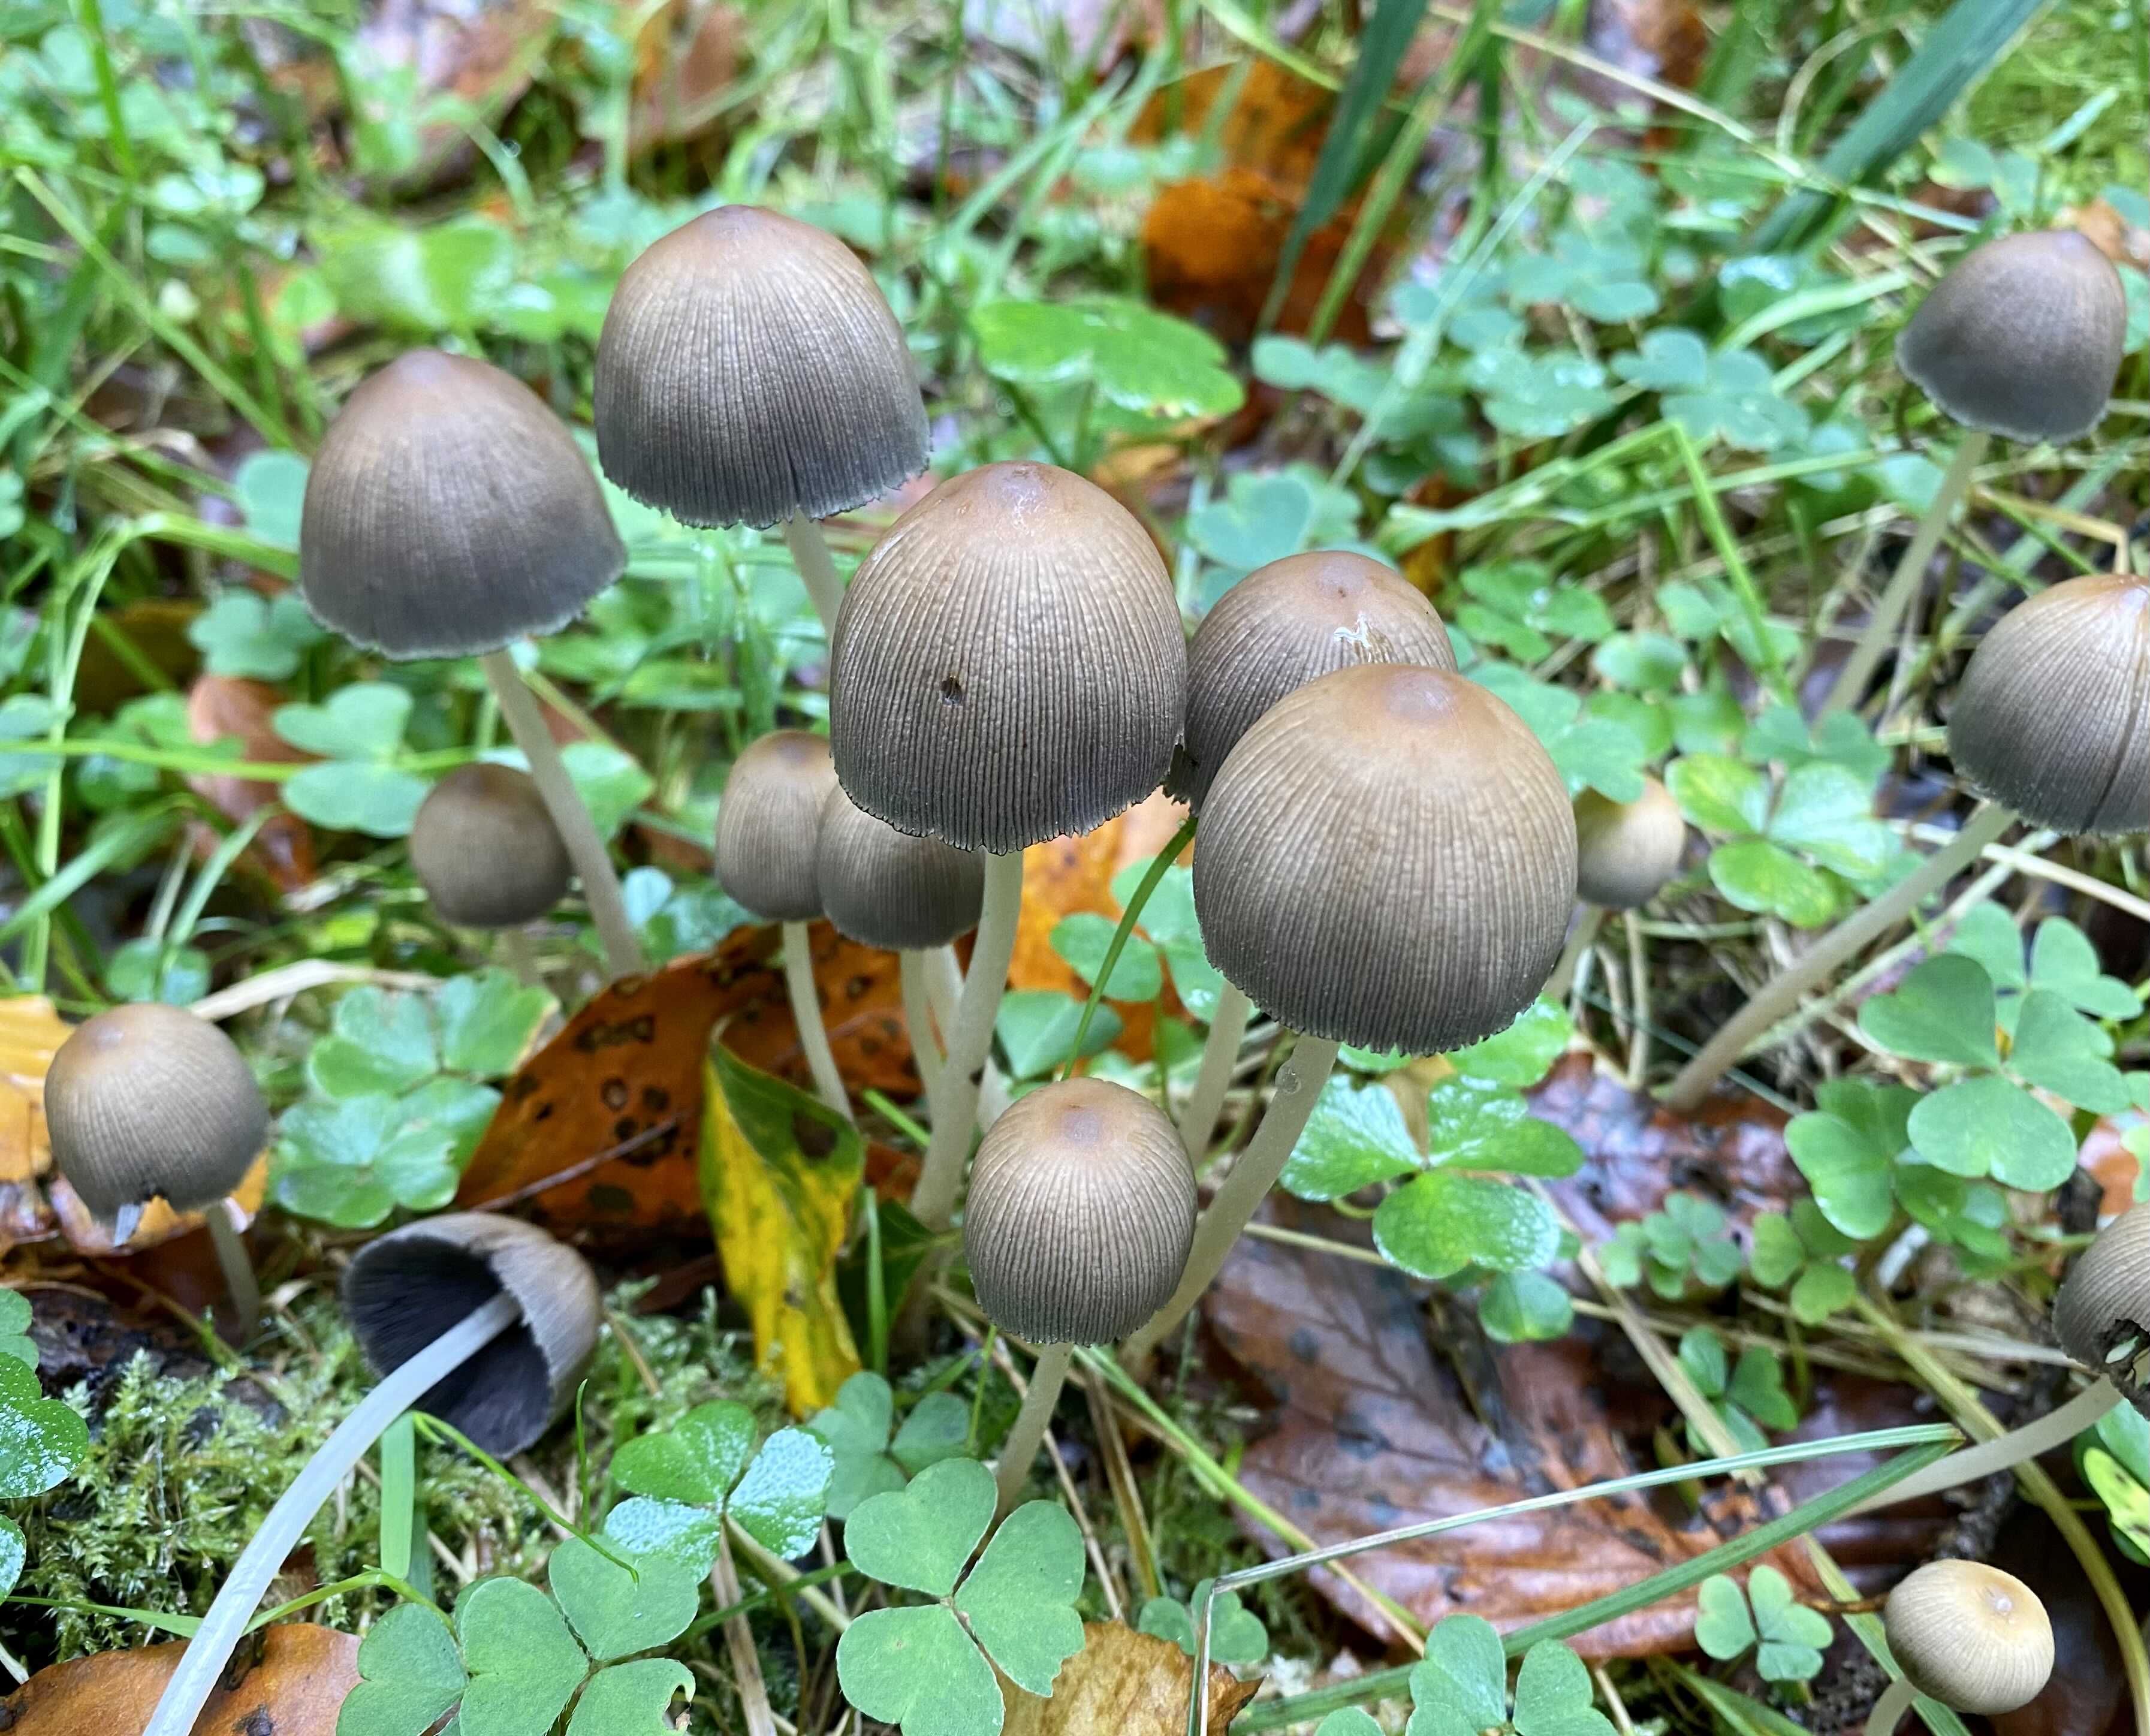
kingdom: Fungi
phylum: Basidiomycota
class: Agaricomycetes
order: Agaricales
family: Psathyrellaceae
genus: Coprinellus
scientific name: Coprinellus micaceus
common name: glimmer-blækhat
